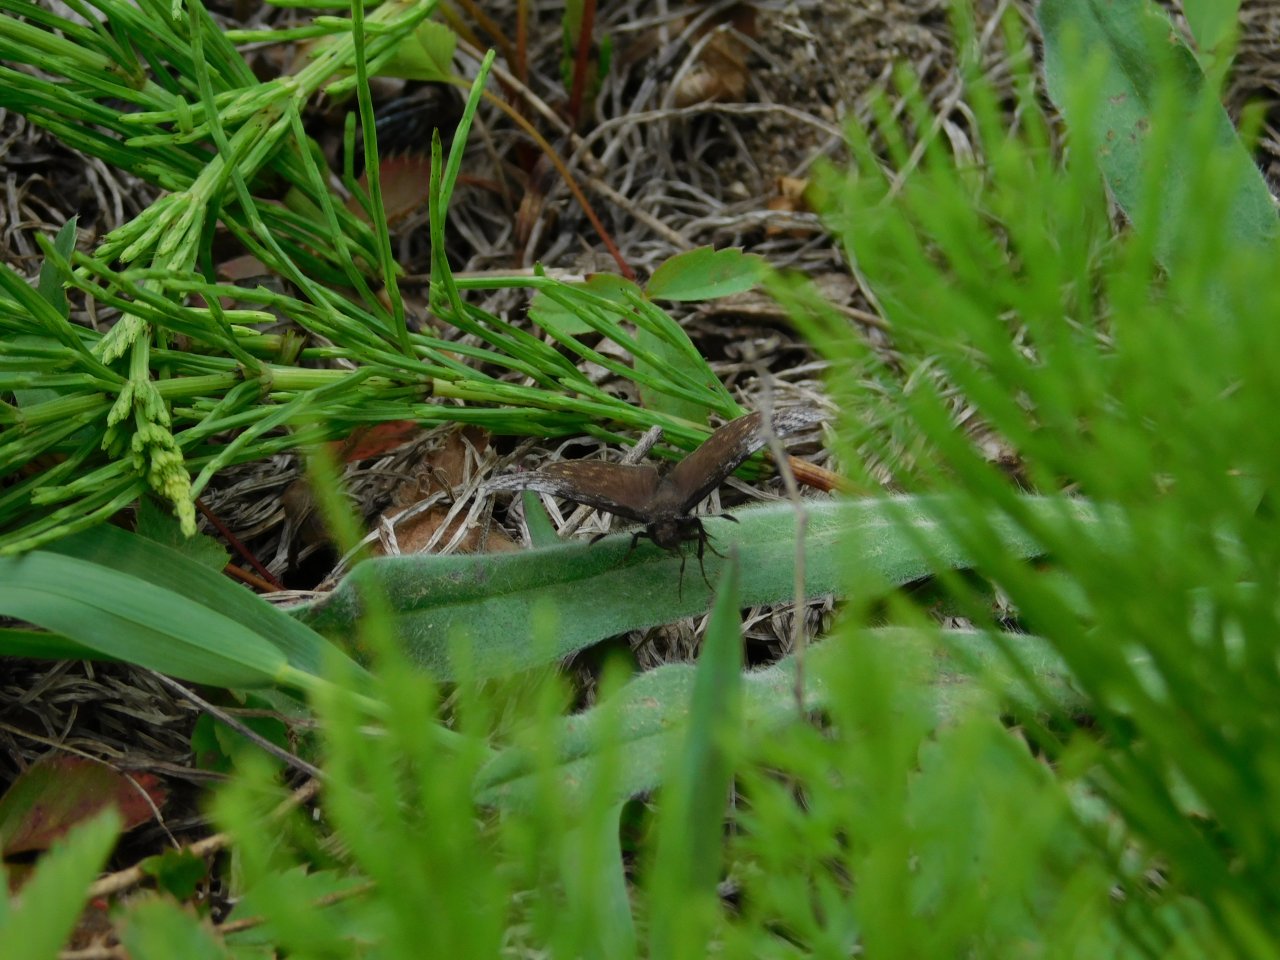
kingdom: Animalia
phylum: Arthropoda
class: Insecta
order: Lepidoptera
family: Hesperiidae
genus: Erynnis
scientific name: Erynnis icelus
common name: Dreamy Duskywing
